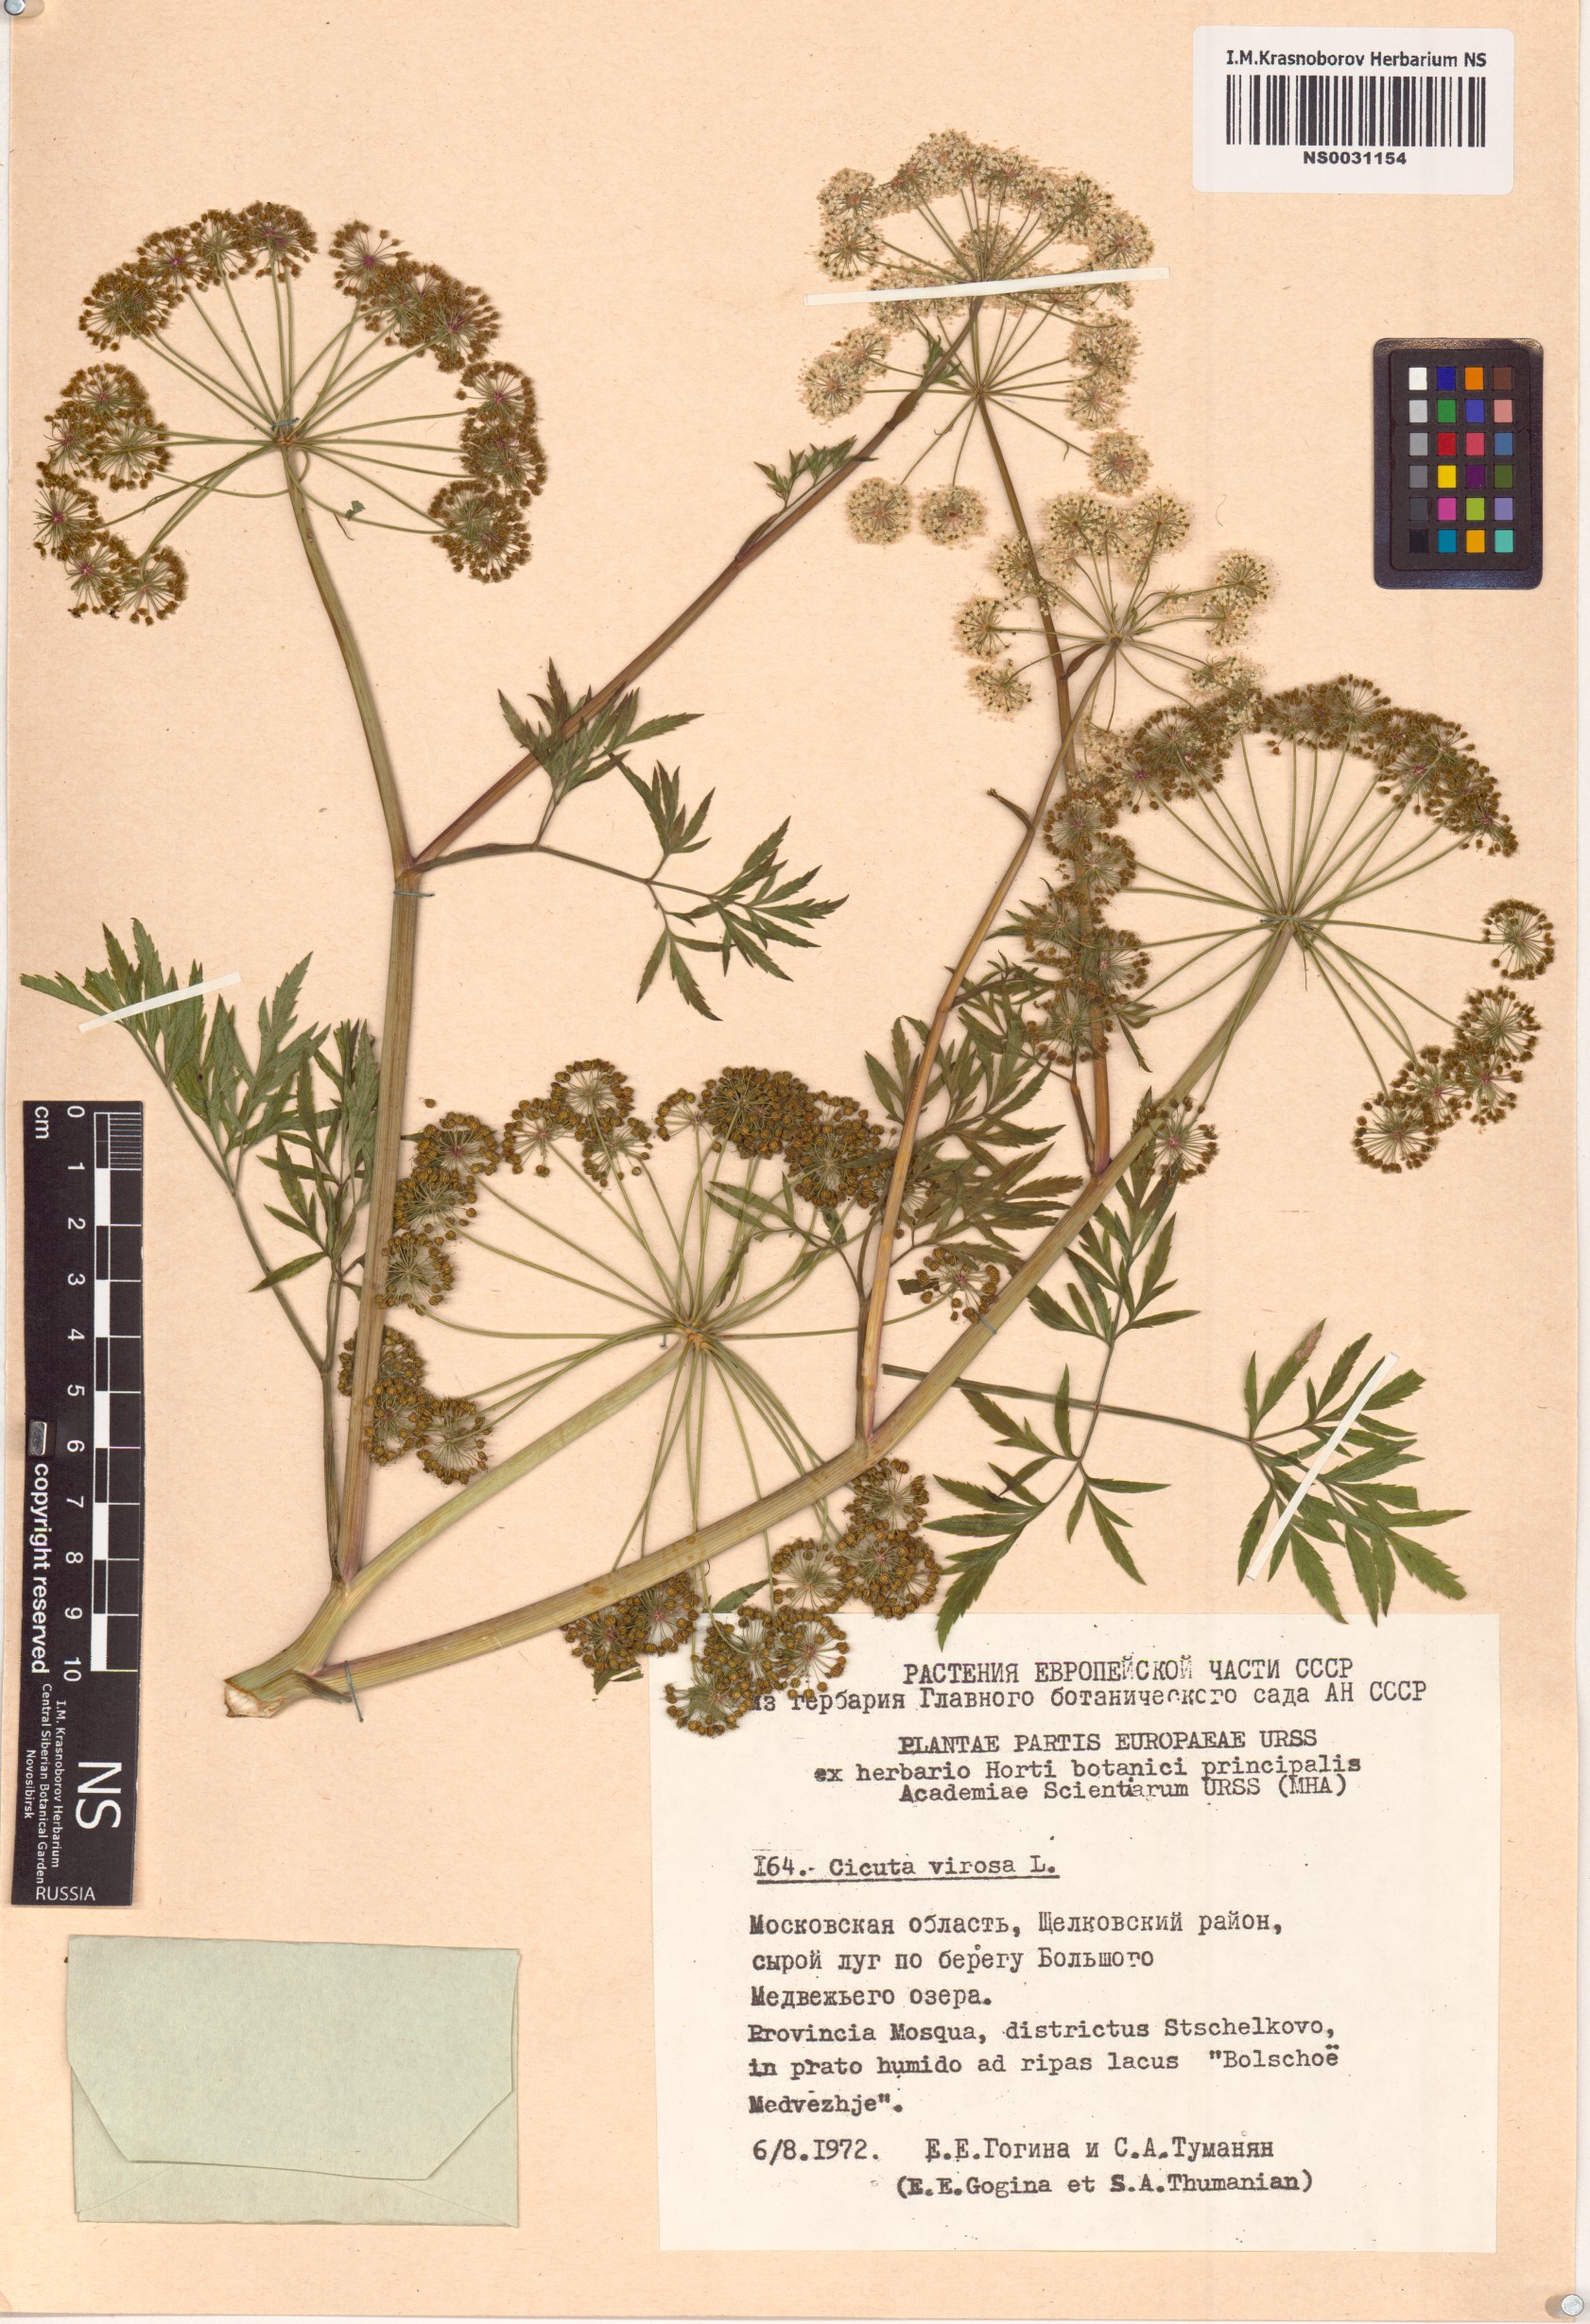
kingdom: Plantae
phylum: Tracheophyta
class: Magnoliopsida
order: Apiales
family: Apiaceae
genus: Cicuta
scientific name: Cicuta virosa
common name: Cowbane
